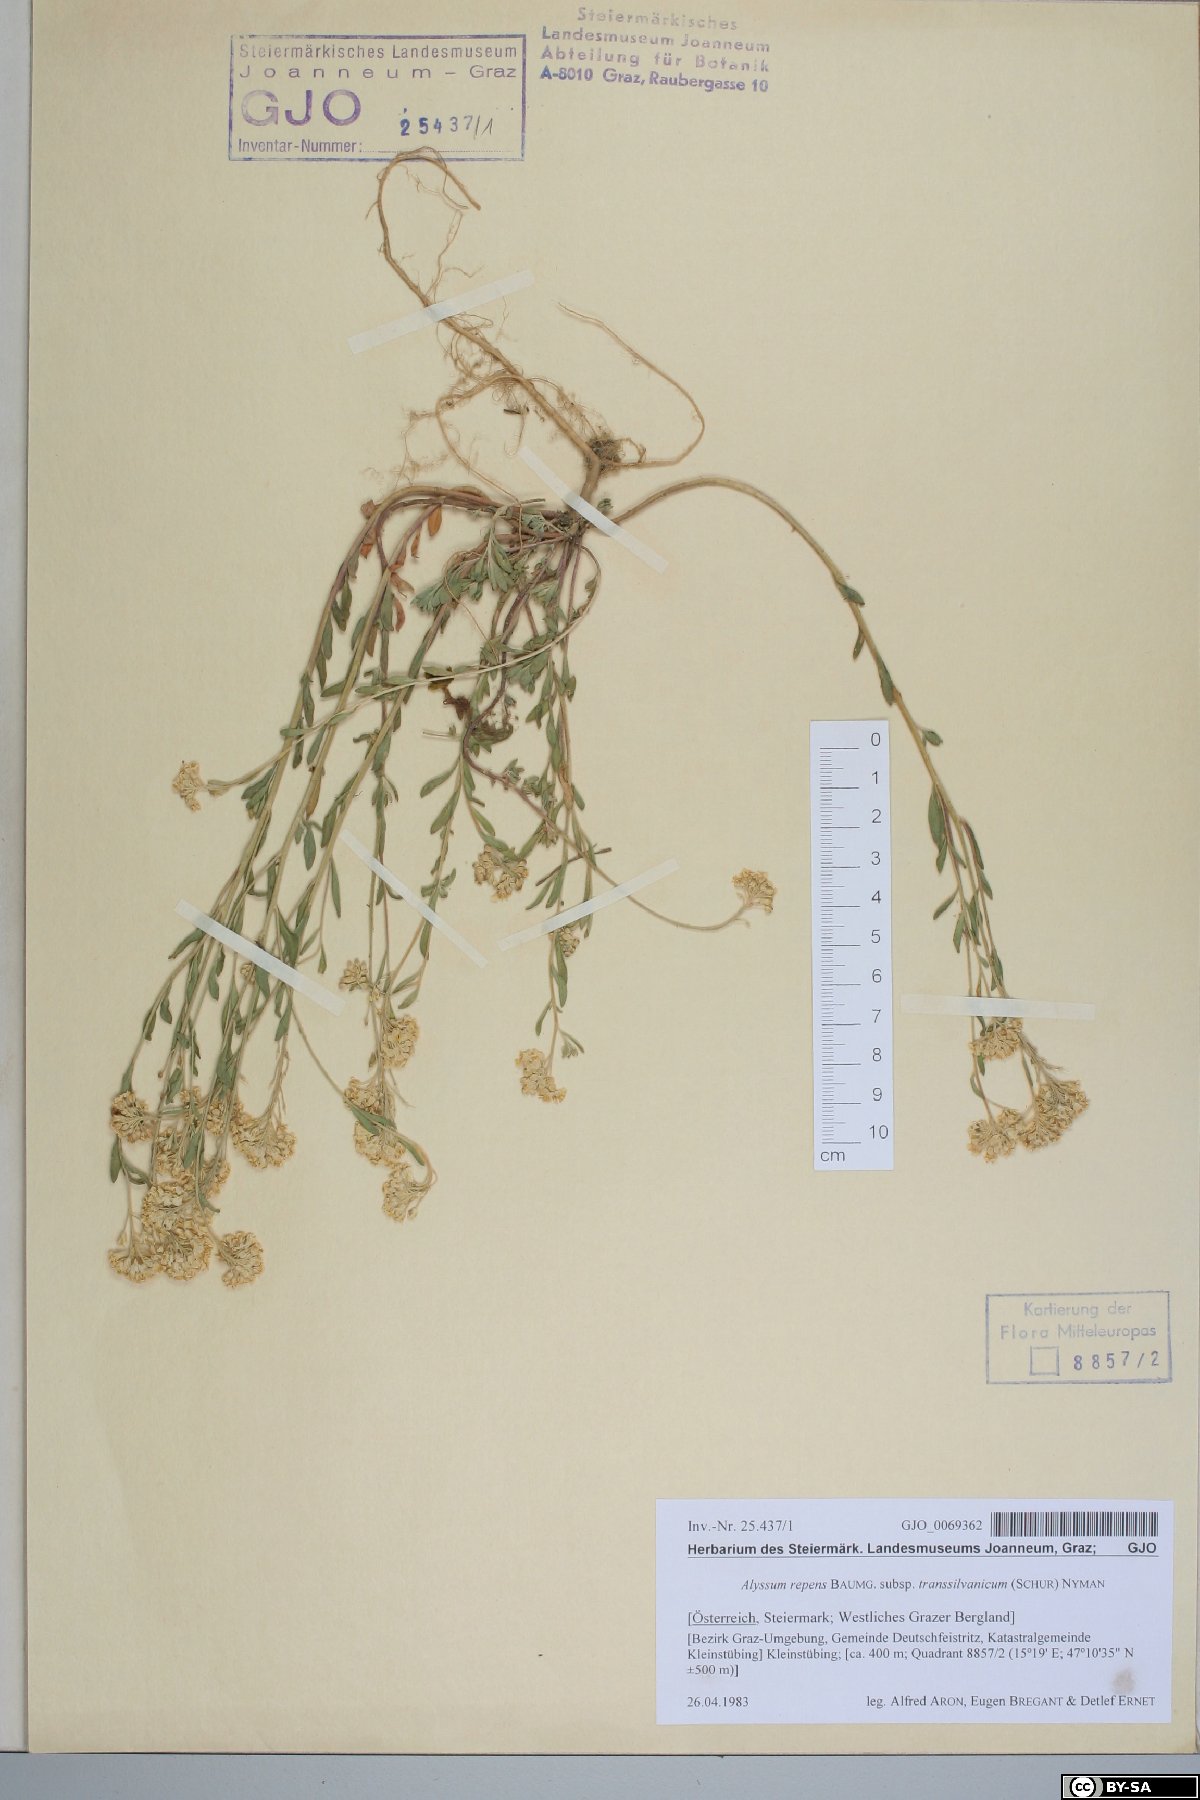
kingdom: Plantae
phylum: Tracheophyta
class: Magnoliopsida
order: Brassicales
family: Brassicaceae
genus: Alyssum
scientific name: Alyssum repens
